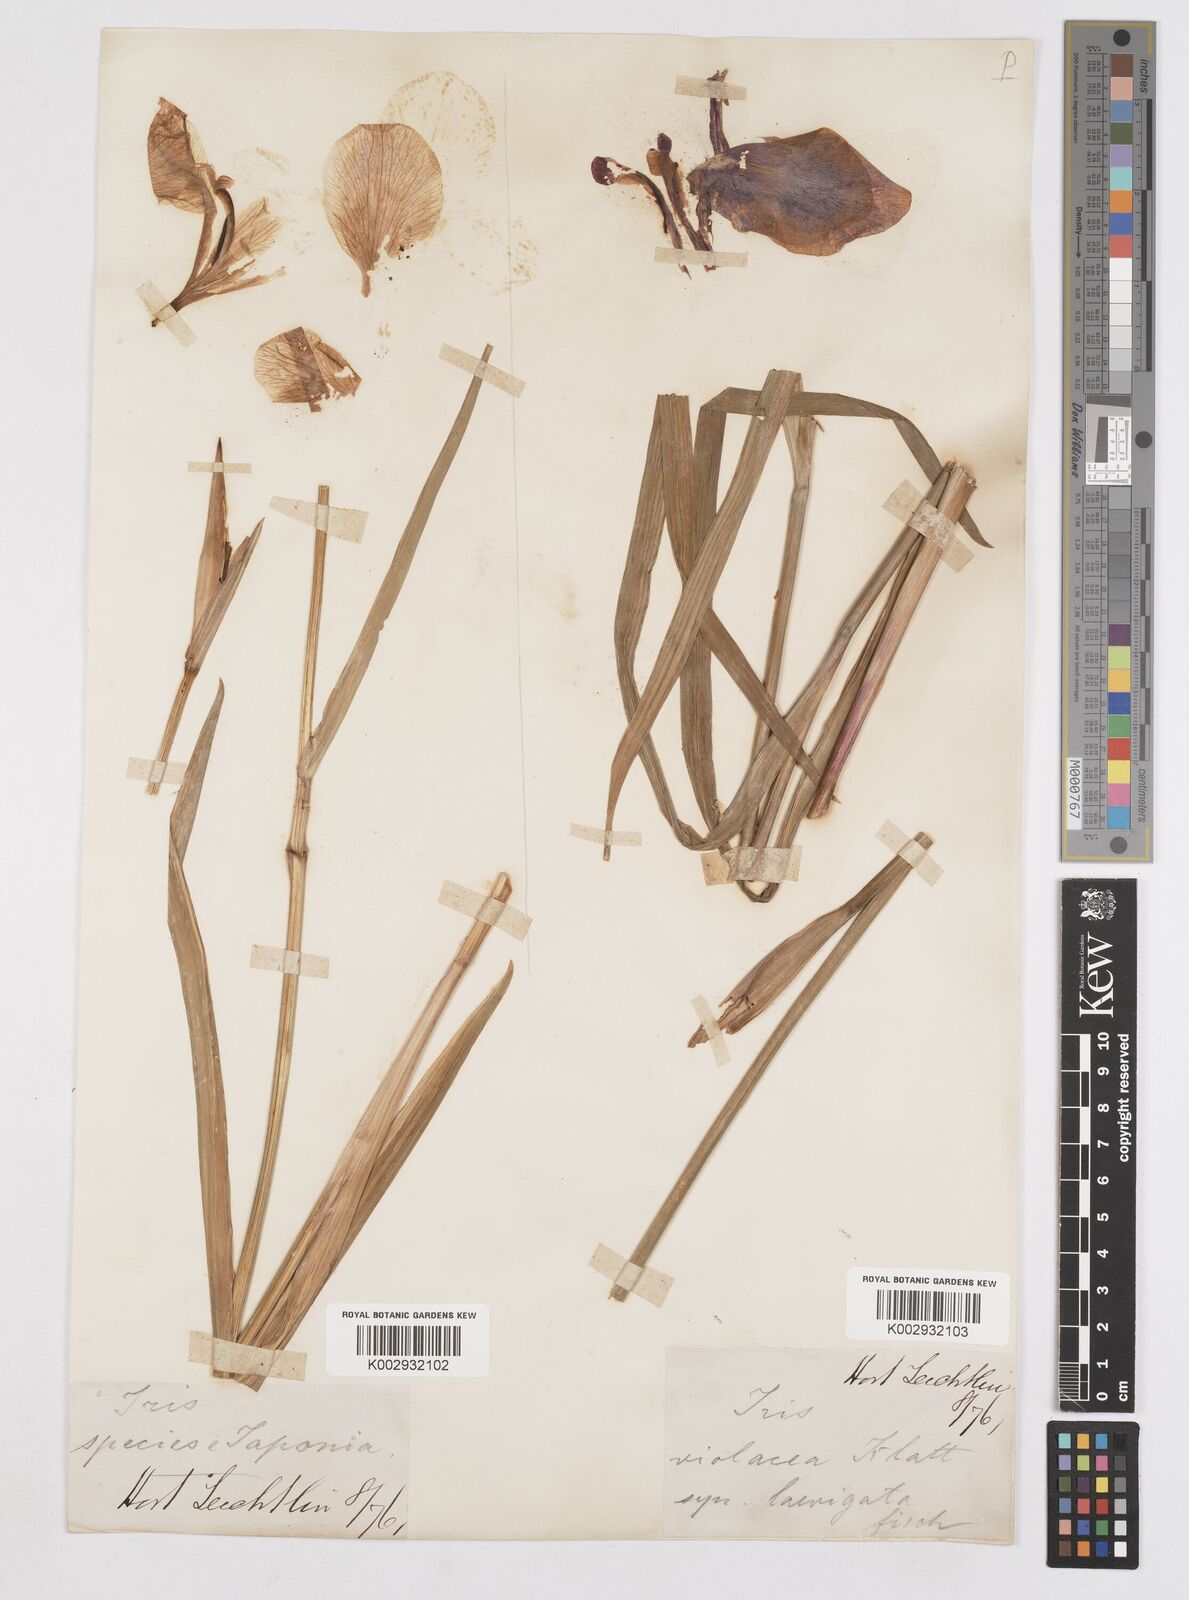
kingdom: Plantae
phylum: Tracheophyta
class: Liliopsida
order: Asparagales
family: Iridaceae
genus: Iris
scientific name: Iris laevigata
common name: Japanese iris
